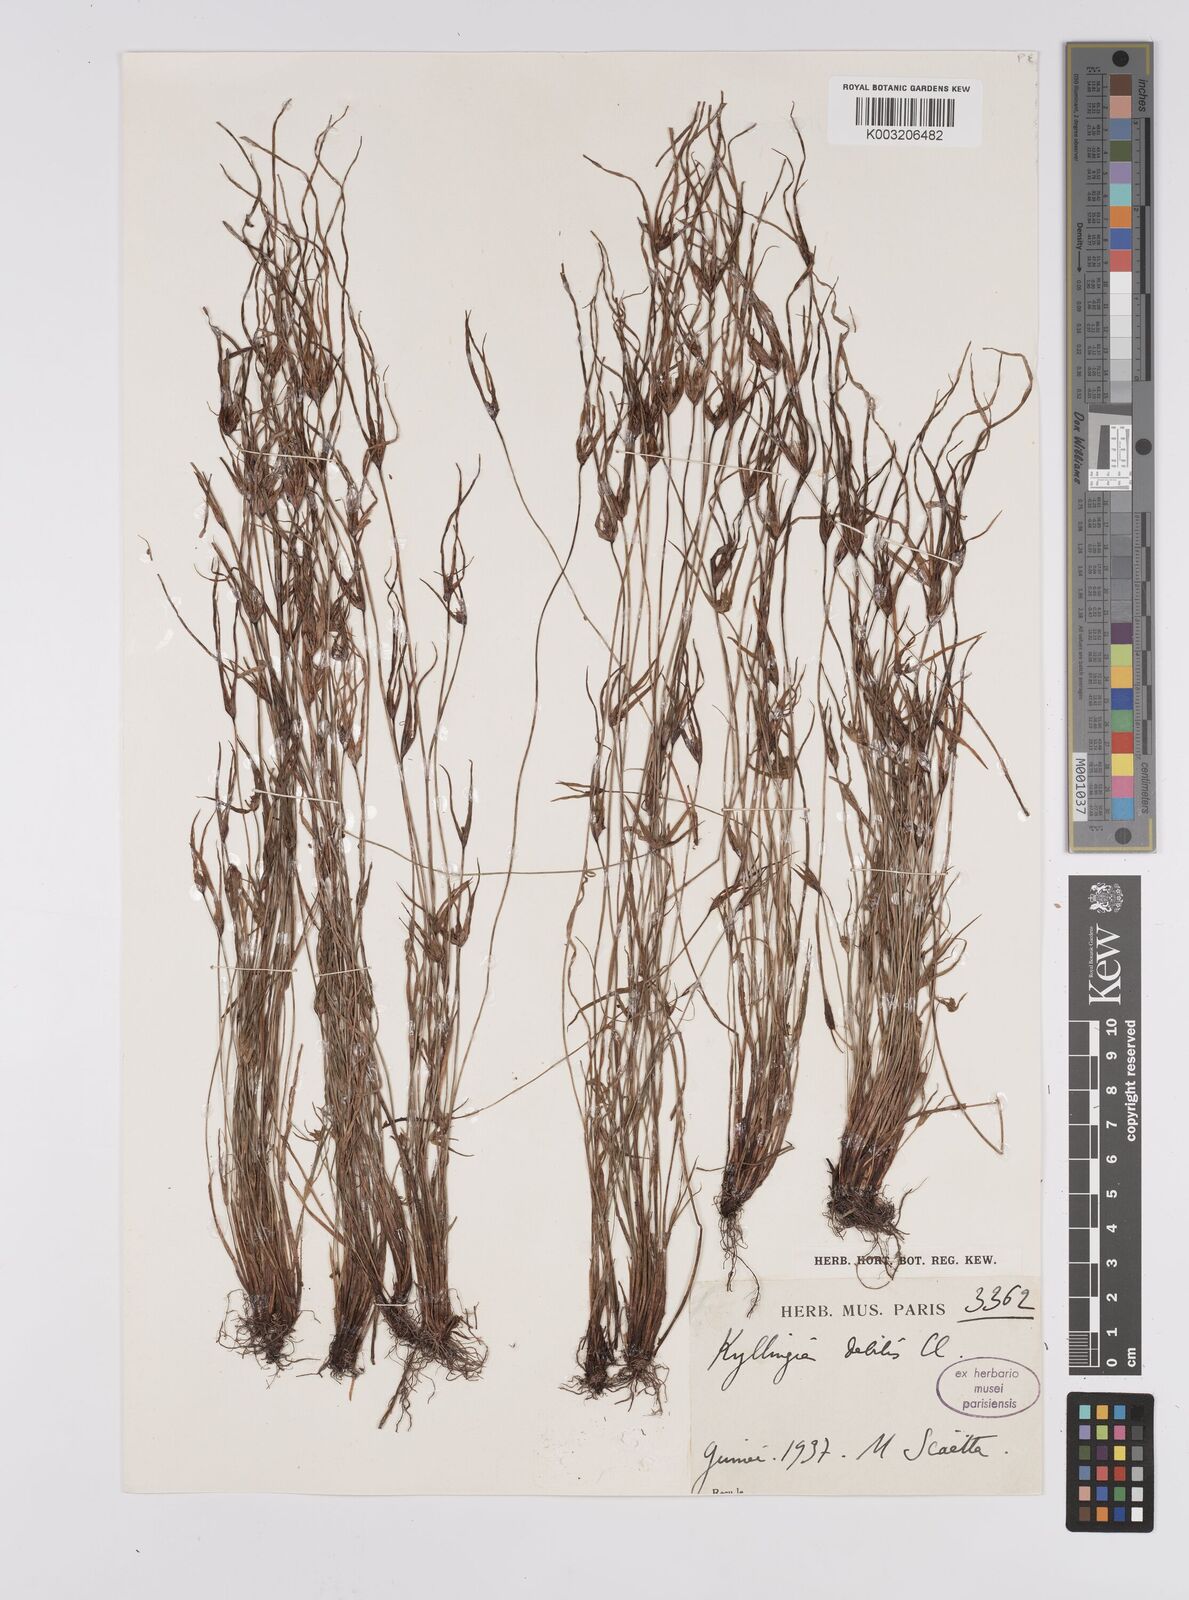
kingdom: Plantae
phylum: Tracheophyta
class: Liliopsida
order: Poales
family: Cyperaceae
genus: Cyperus
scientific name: Cyperus enervis
